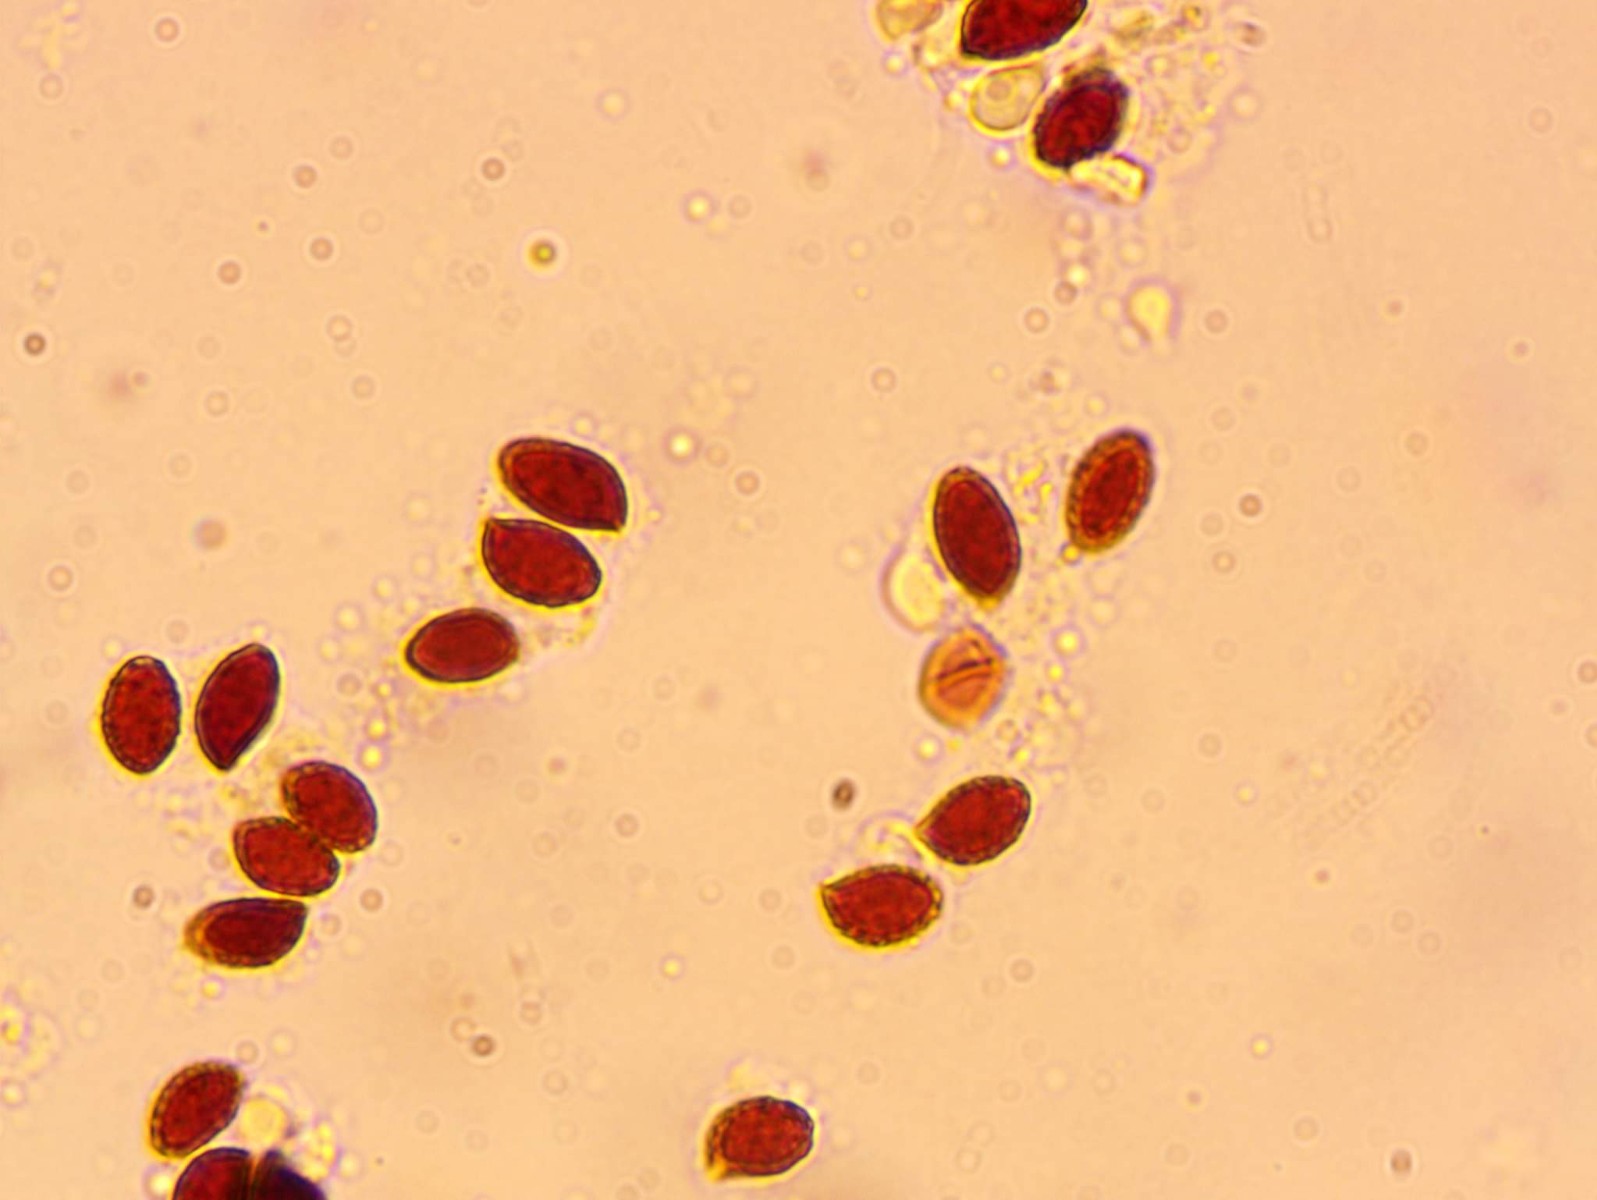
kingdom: Fungi
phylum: Basidiomycota
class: Agaricomycetes
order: Agaricales
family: Cortinariaceae
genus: Cortinarius
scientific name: Cortinarius uxorum
